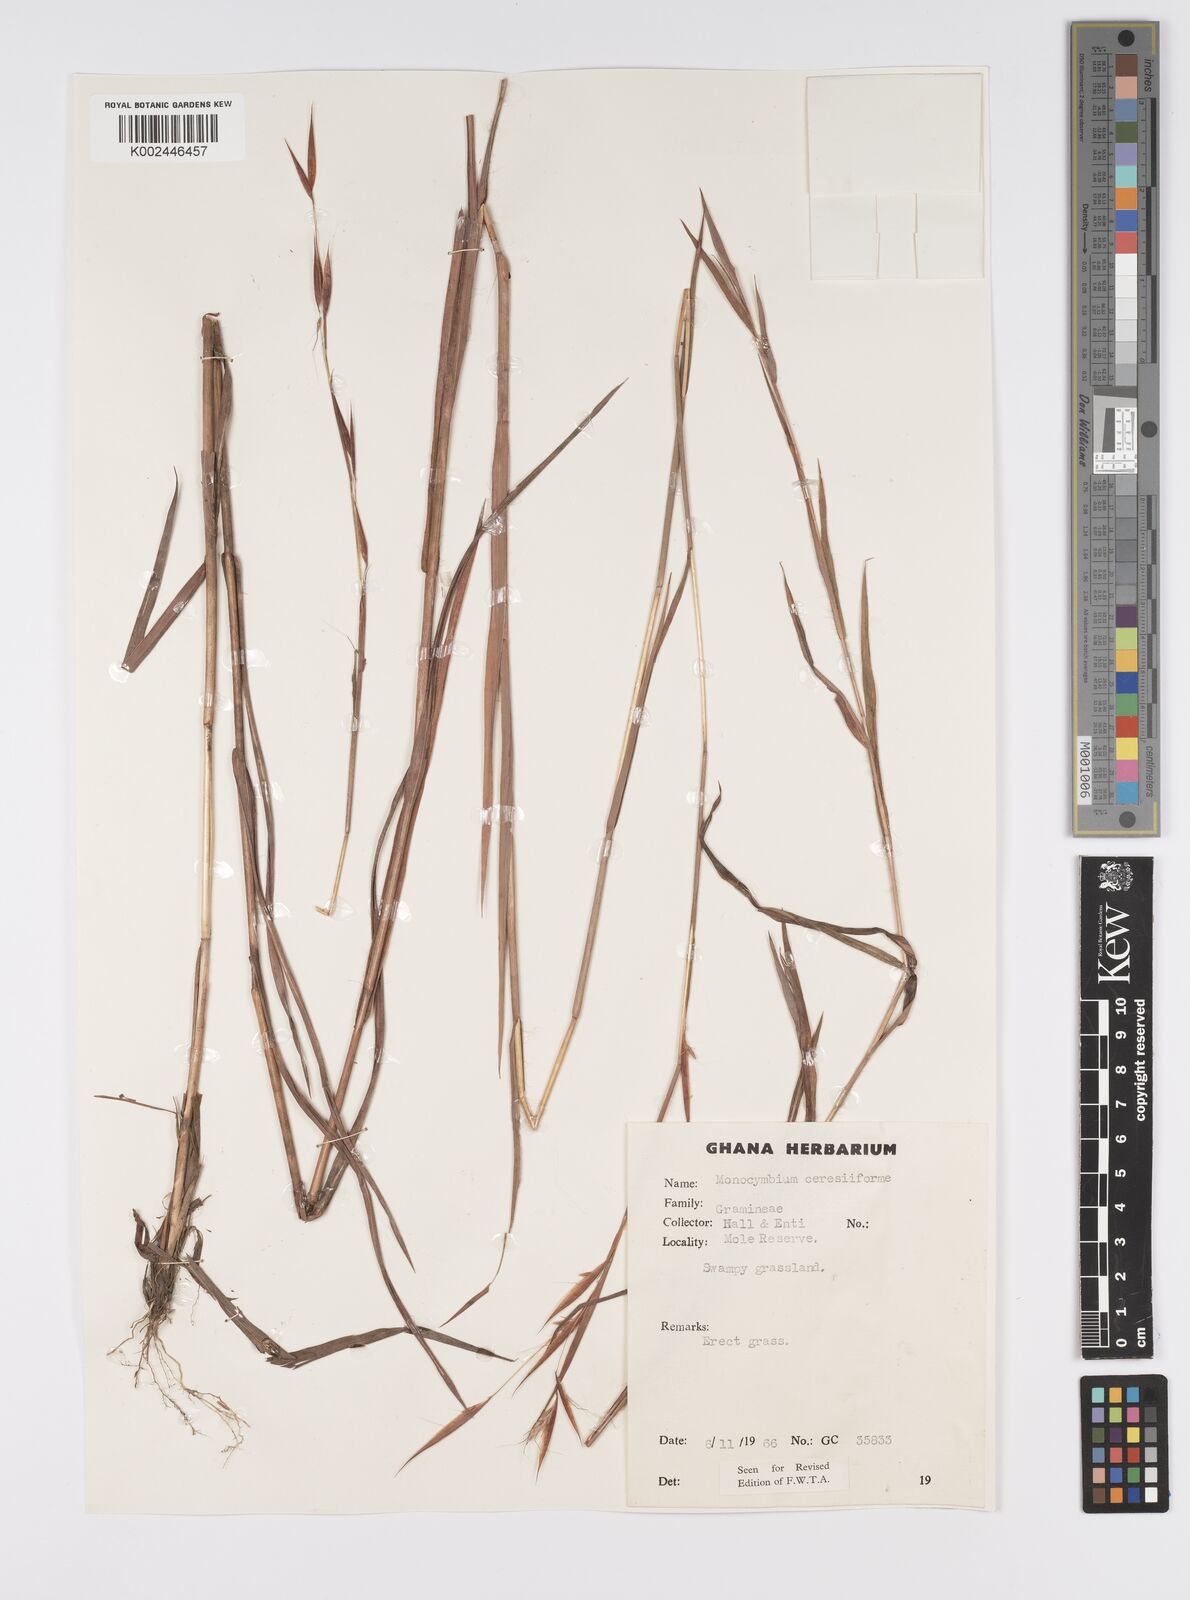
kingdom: Plantae
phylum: Tracheophyta
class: Liliopsida
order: Poales
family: Poaceae
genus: Monocymbium
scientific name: Monocymbium ceresiiforme
